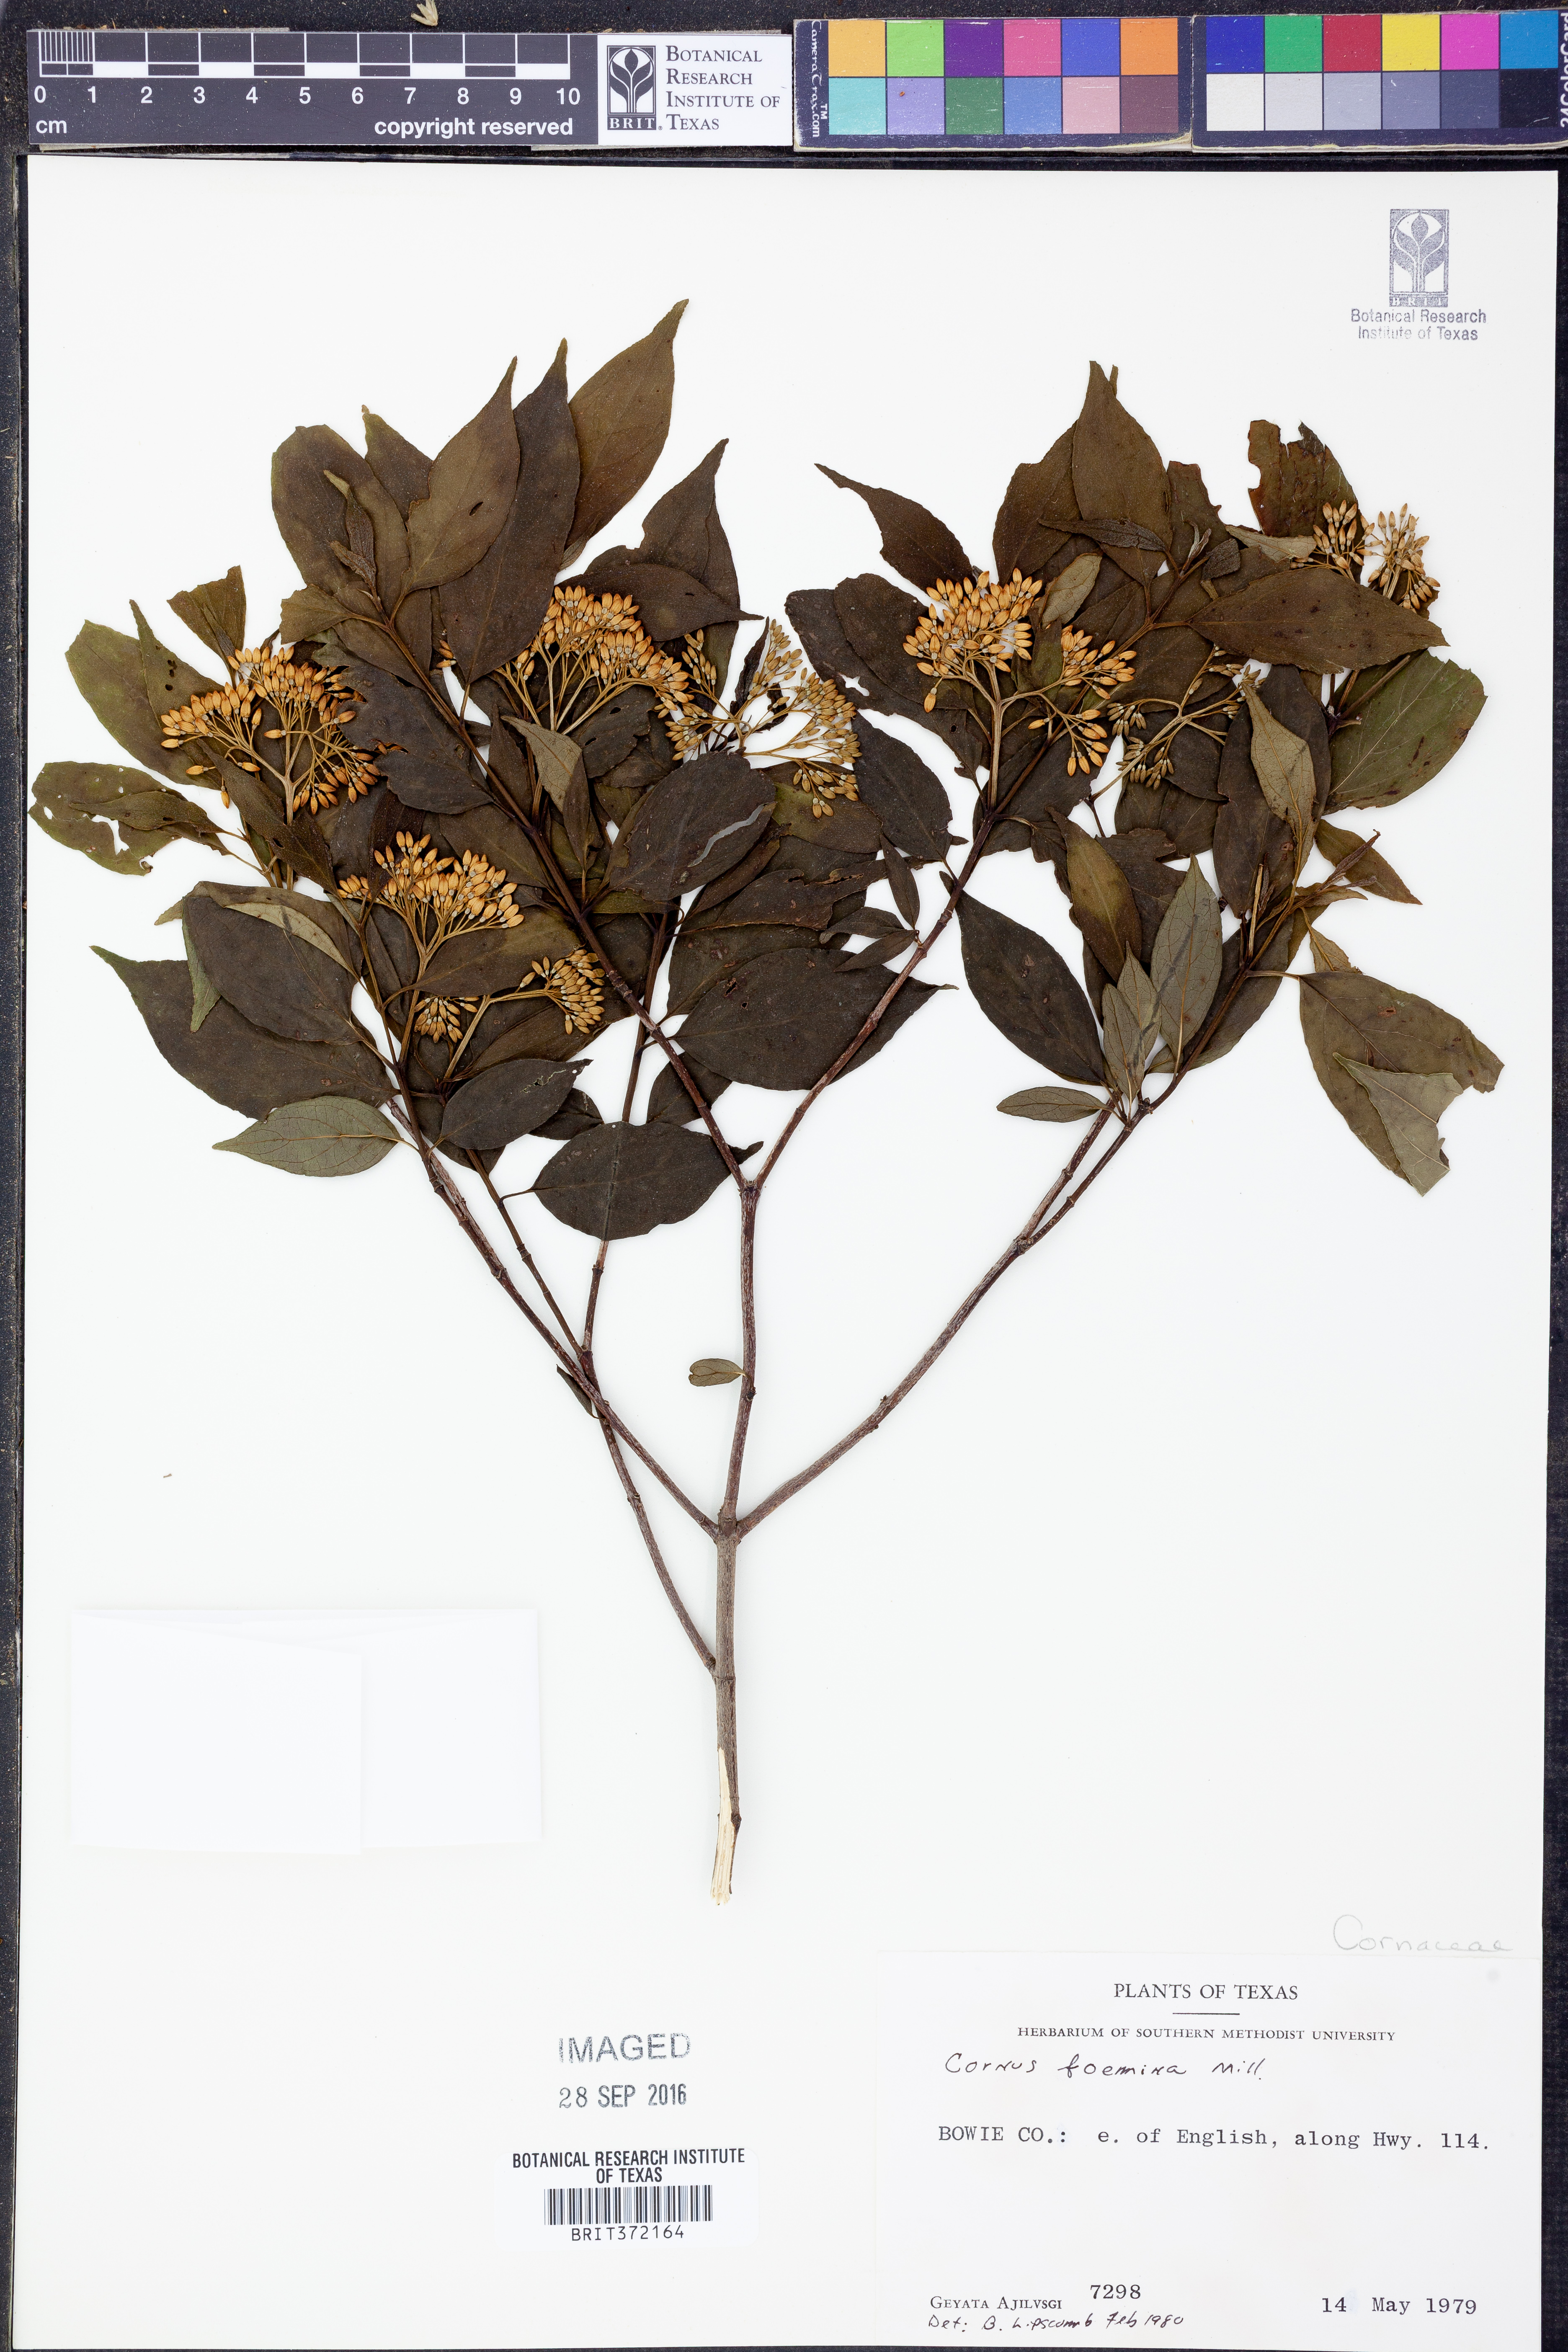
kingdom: Plantae
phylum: Tracheophyta
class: Magnoliopsida
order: Cornales
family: Cornaceae
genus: Cornus
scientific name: Cornus foemina
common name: Swamp dogwood
